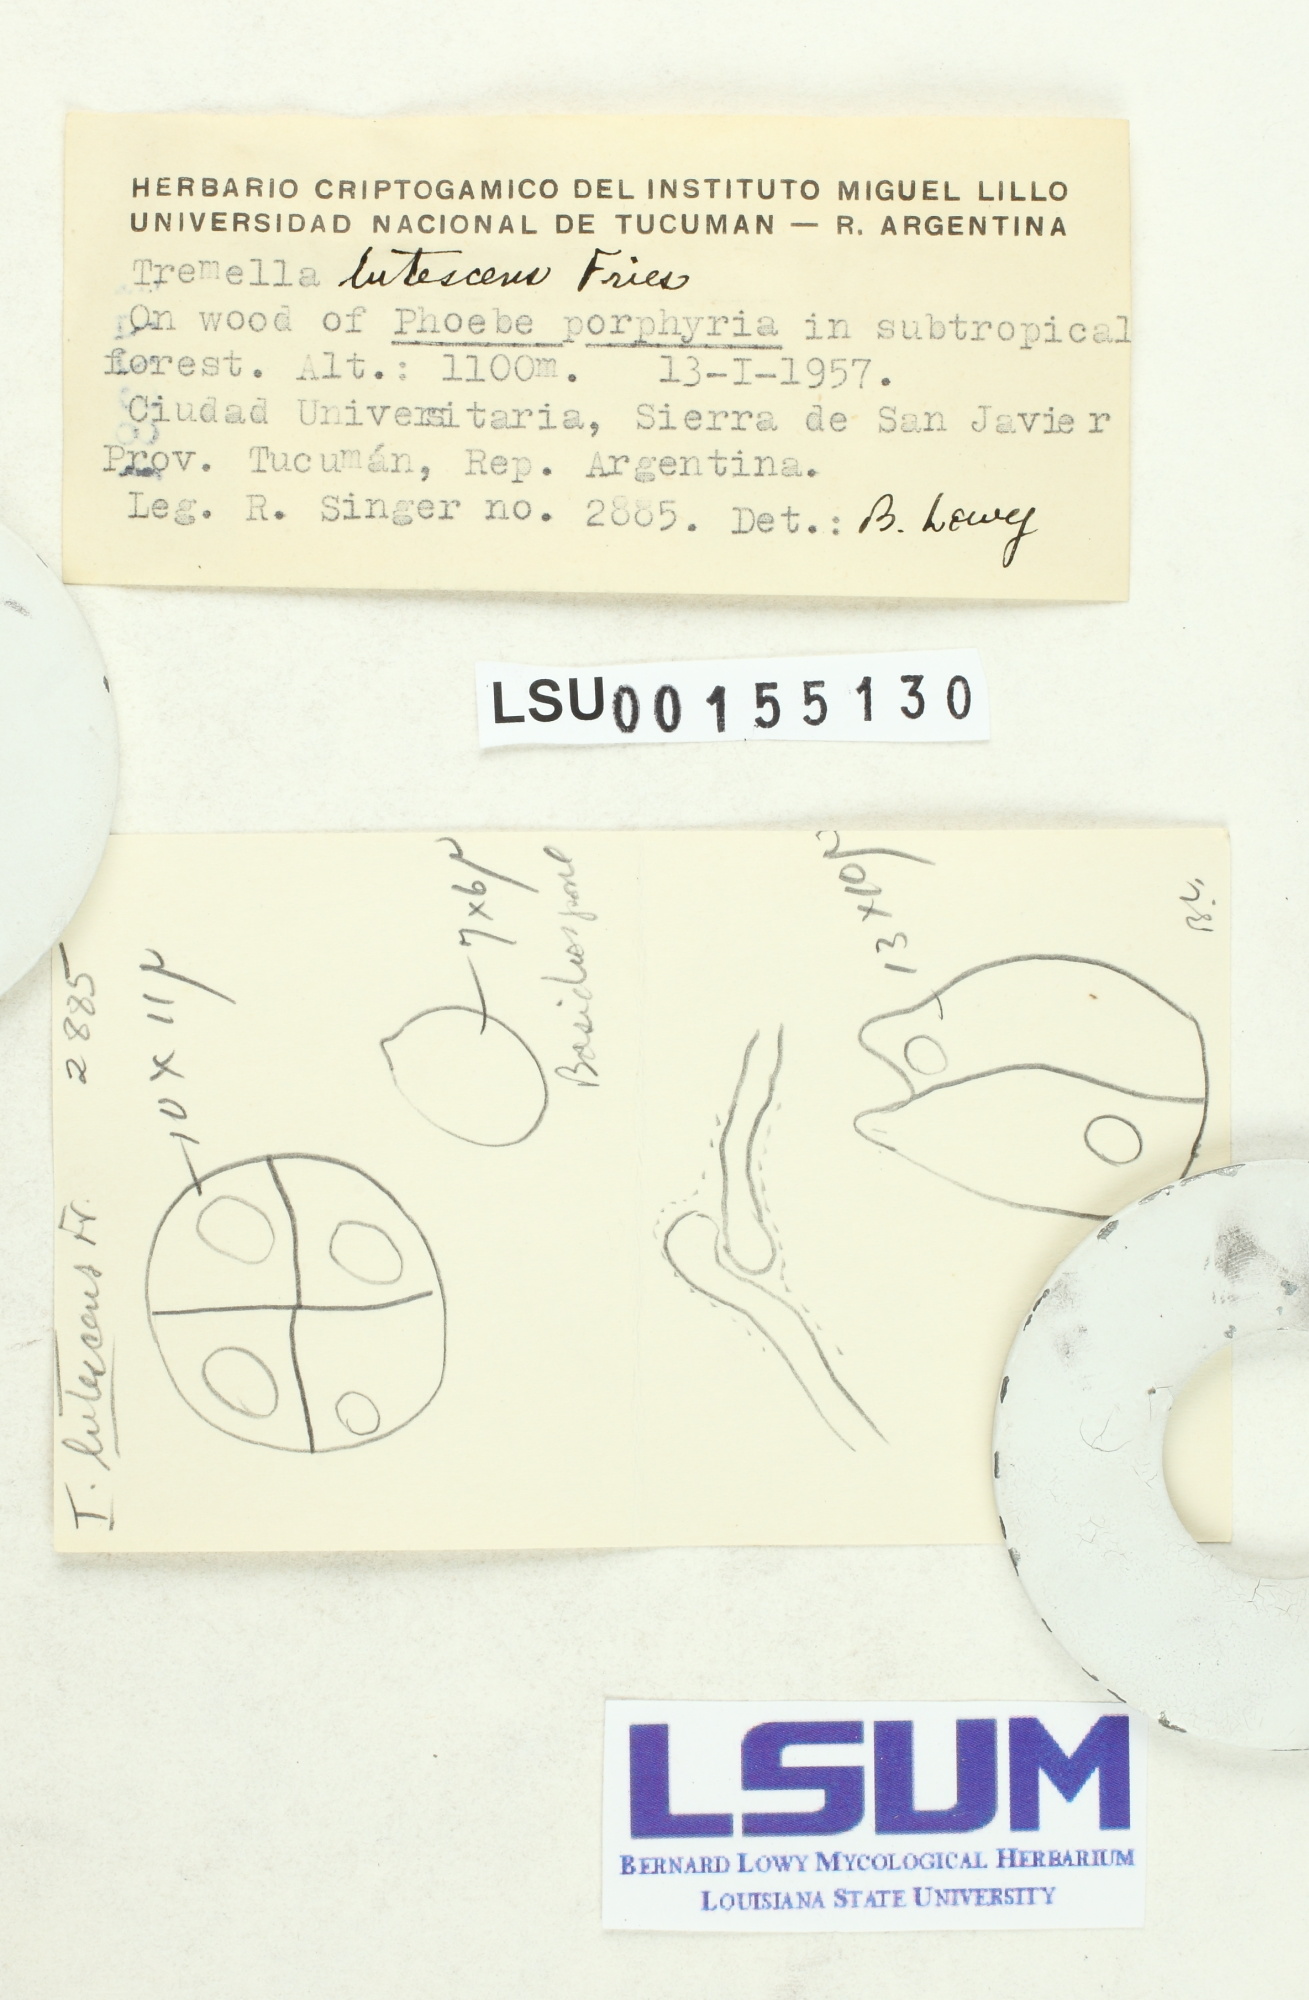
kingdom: Fungi
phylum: Basidiomycota
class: Tremellomycetes
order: Tremellales
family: Tremellaceae
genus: Tremella
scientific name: Tremella mesenterica
